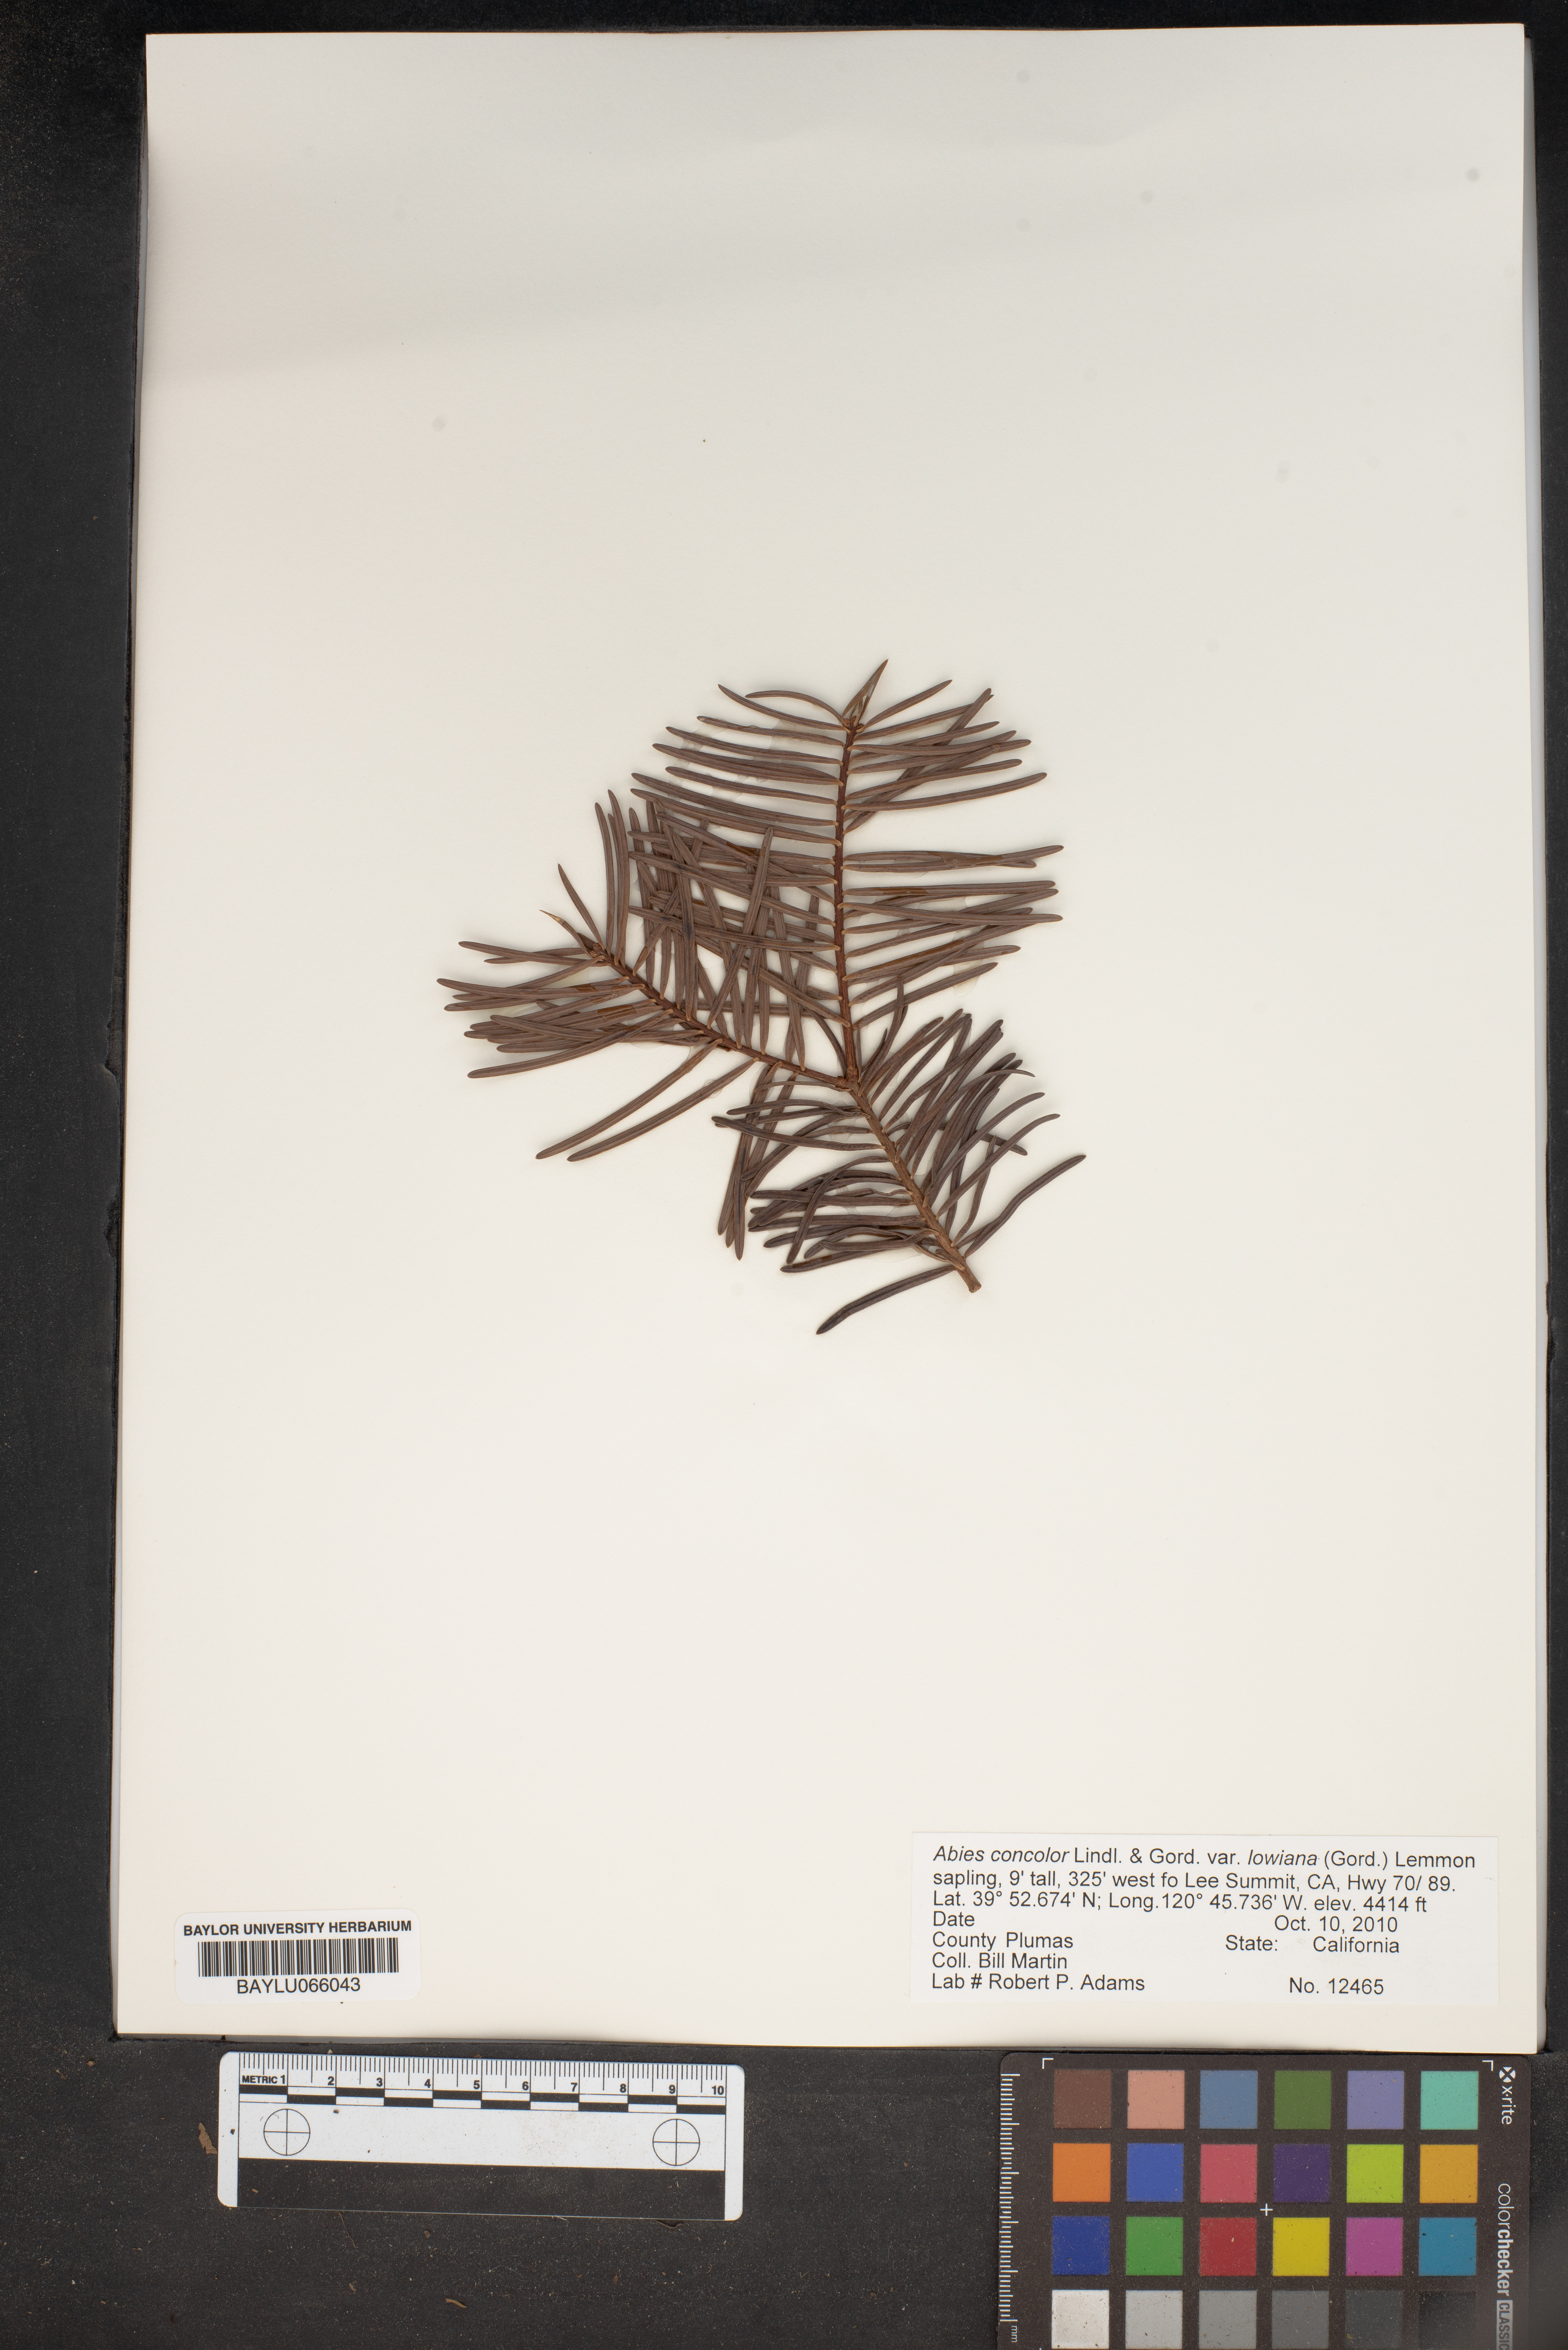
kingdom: Plantae
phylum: Tracheophyta
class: Pinopsida
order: Pinales
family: Pinaceae
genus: Abies
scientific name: Abies concolor
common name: Colorado fir
